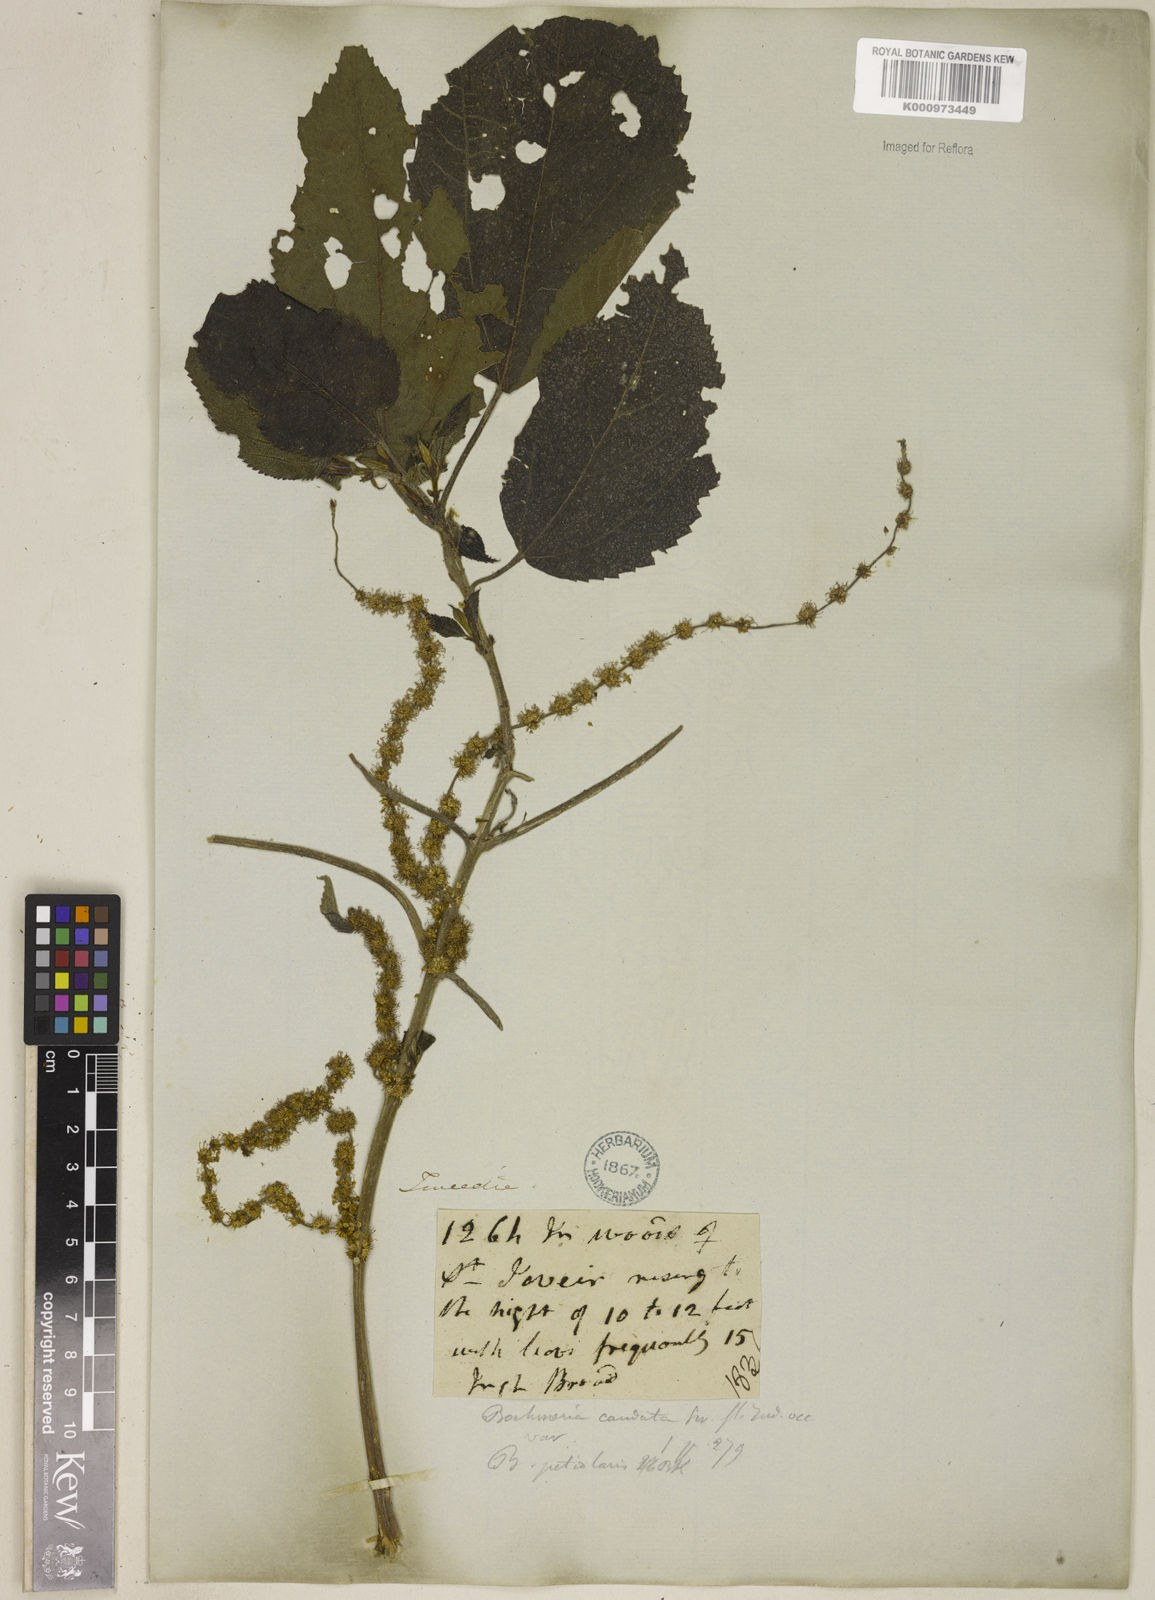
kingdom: Plantae
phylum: Tracheophyta
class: Magnoliopsida
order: Rosales
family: Urticaceae
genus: Boehmeria
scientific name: Boehmeria caudata
